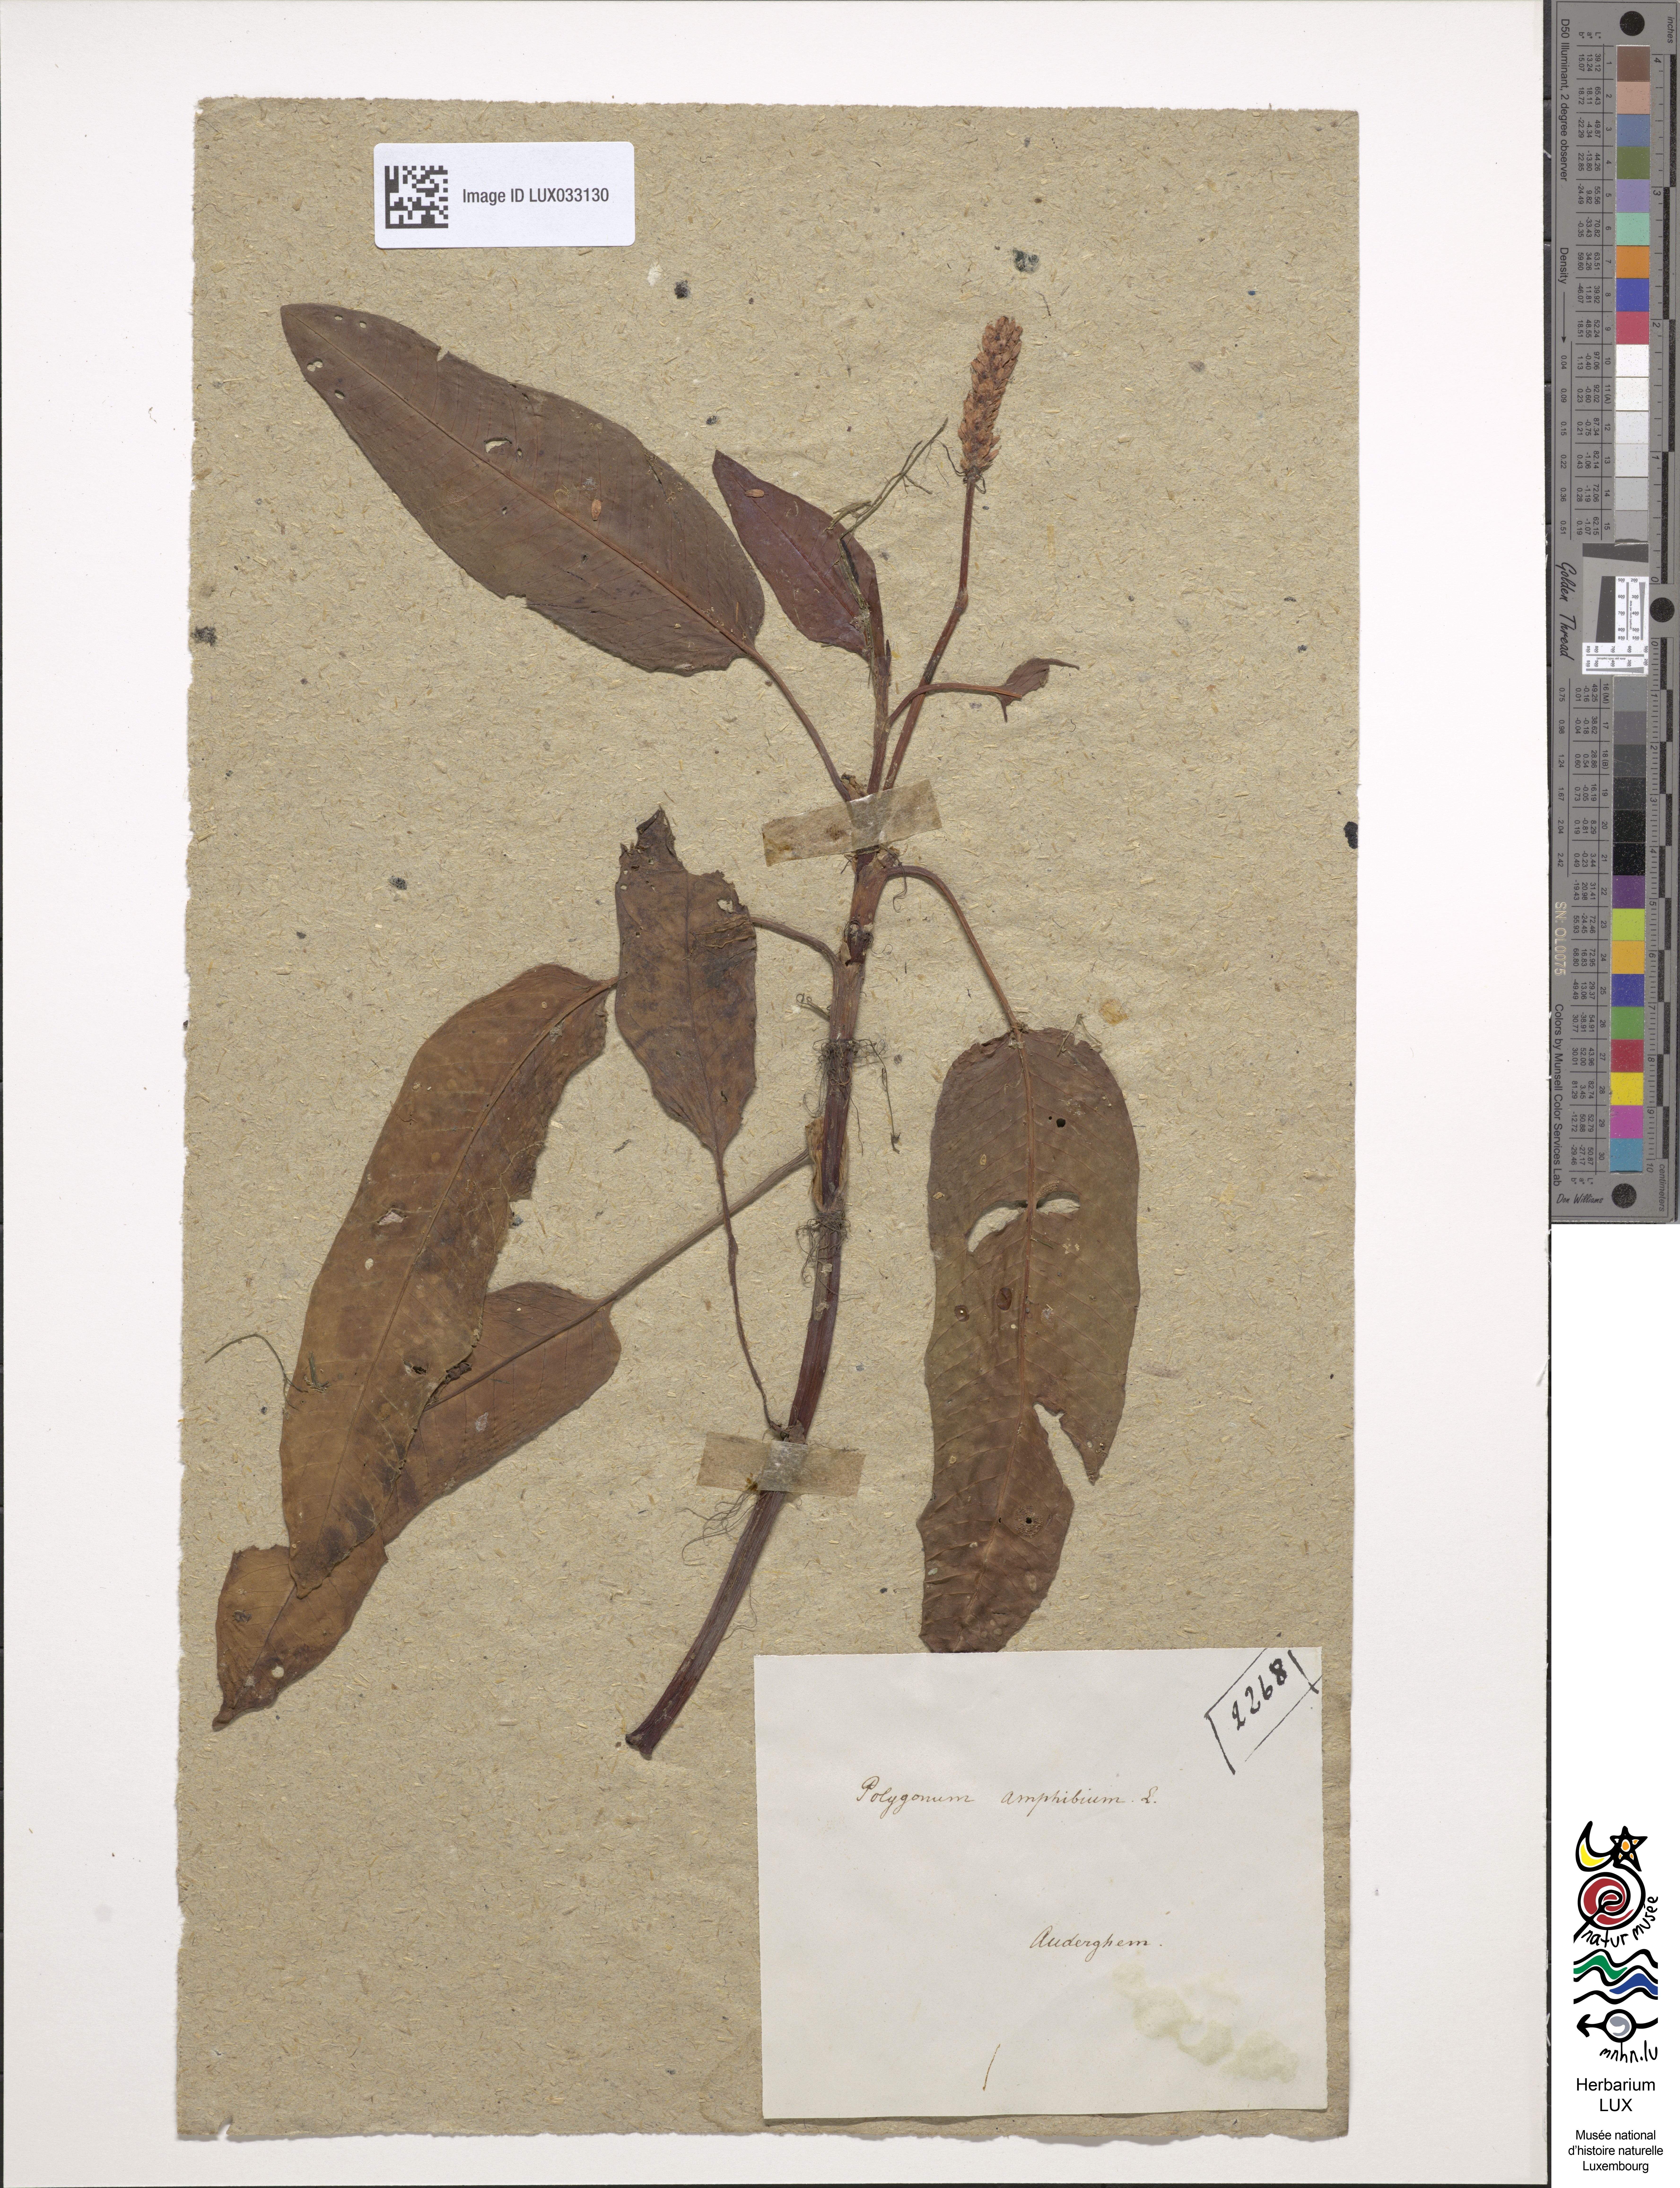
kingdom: Plantae
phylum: Tracheophyta
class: Magnoliopsida
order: Caryophyllales
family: Polygonaceae
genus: Persicaria
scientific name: Persicaria amphibia
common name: Amphibious bistort
